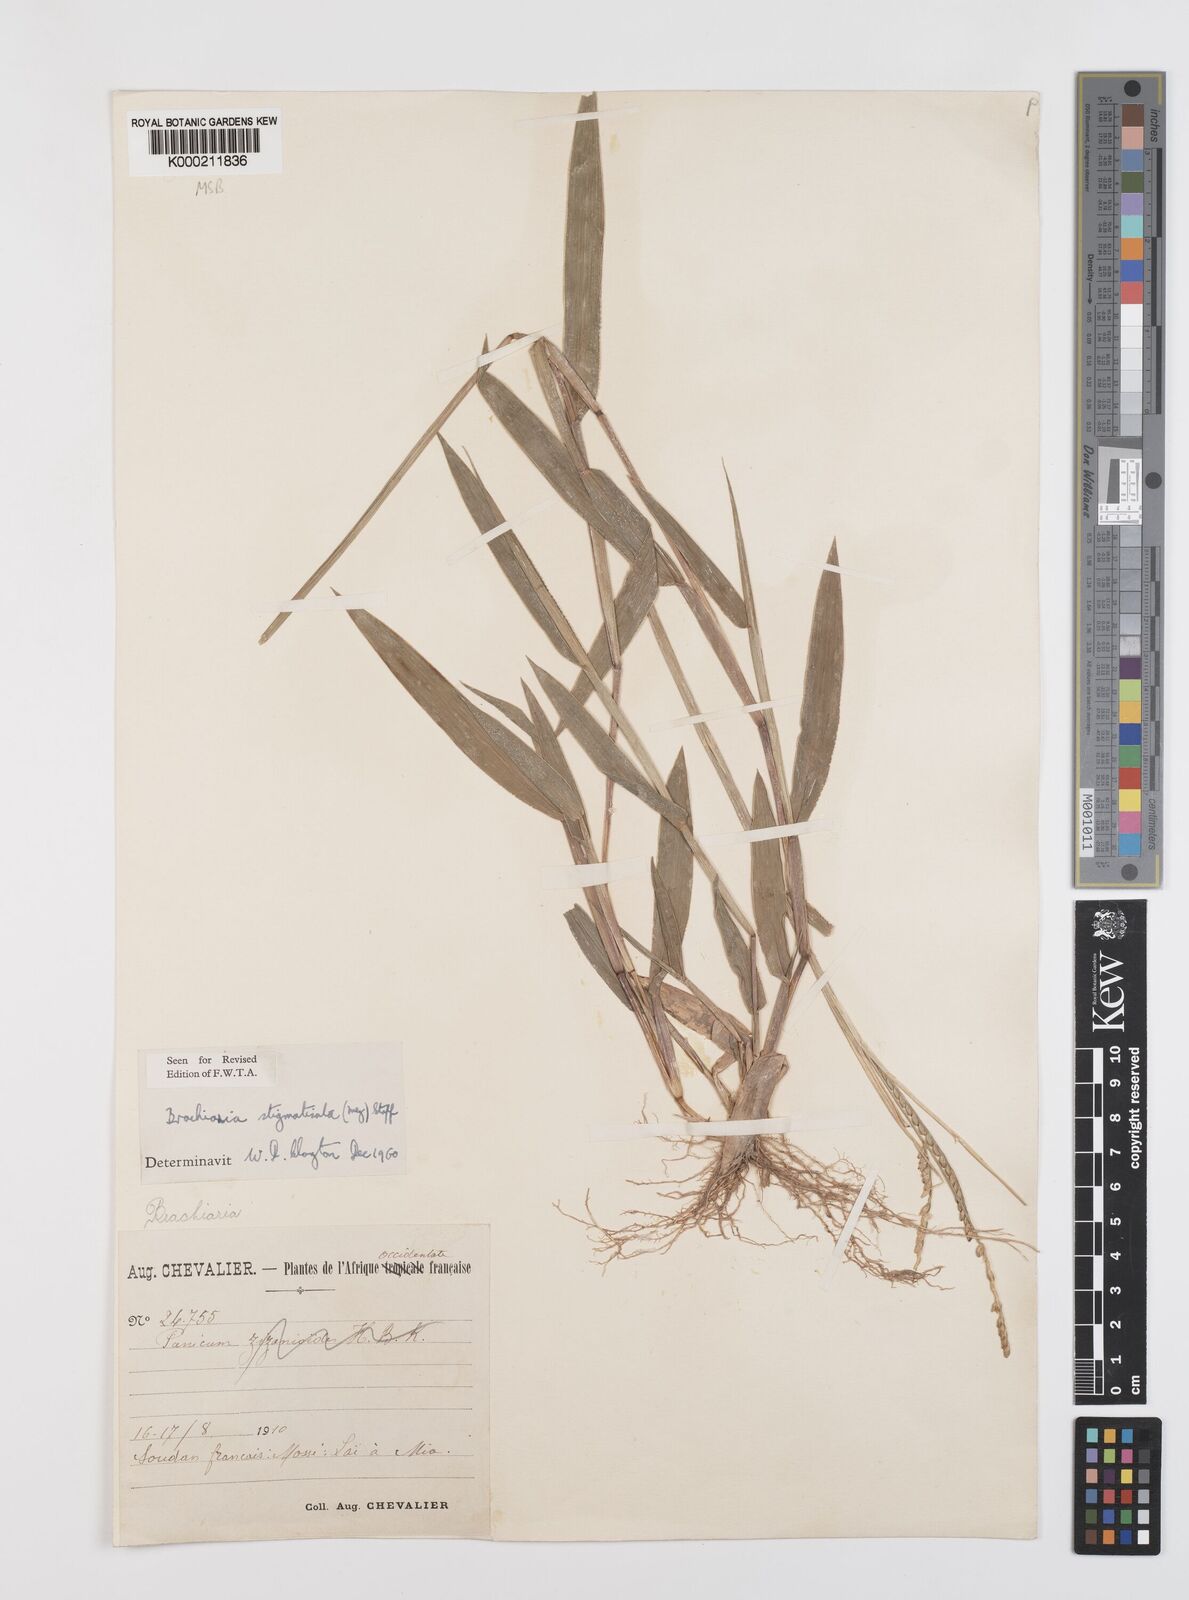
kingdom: Plantae
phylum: Tracheophyta
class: Liliopsida
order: Poales
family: Poaceae
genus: Urochloa
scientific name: Urochloa stigmatisata
